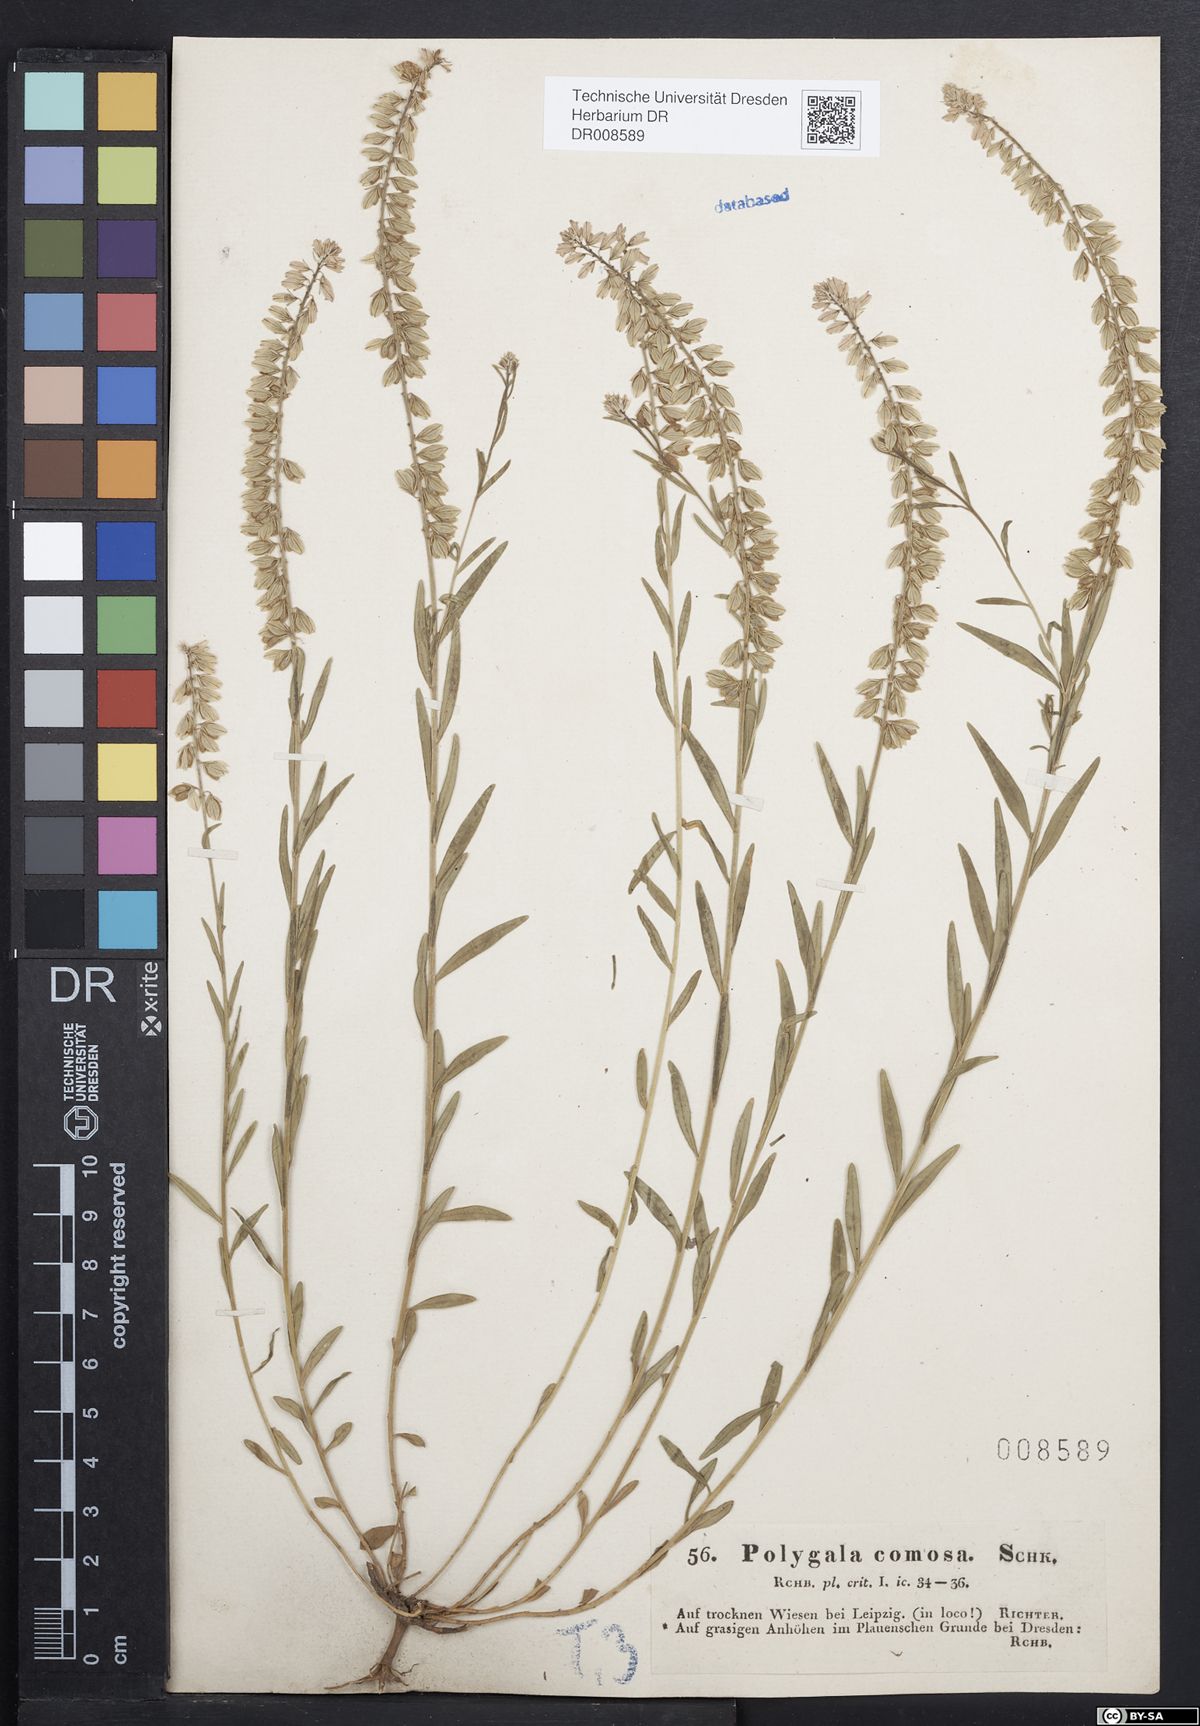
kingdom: Plantae
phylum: Tracheophyta
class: Magnoliopsida
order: Fabales
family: Polygalaceae
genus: Polygala
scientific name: Polygala comosa
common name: Tufted milkwort
